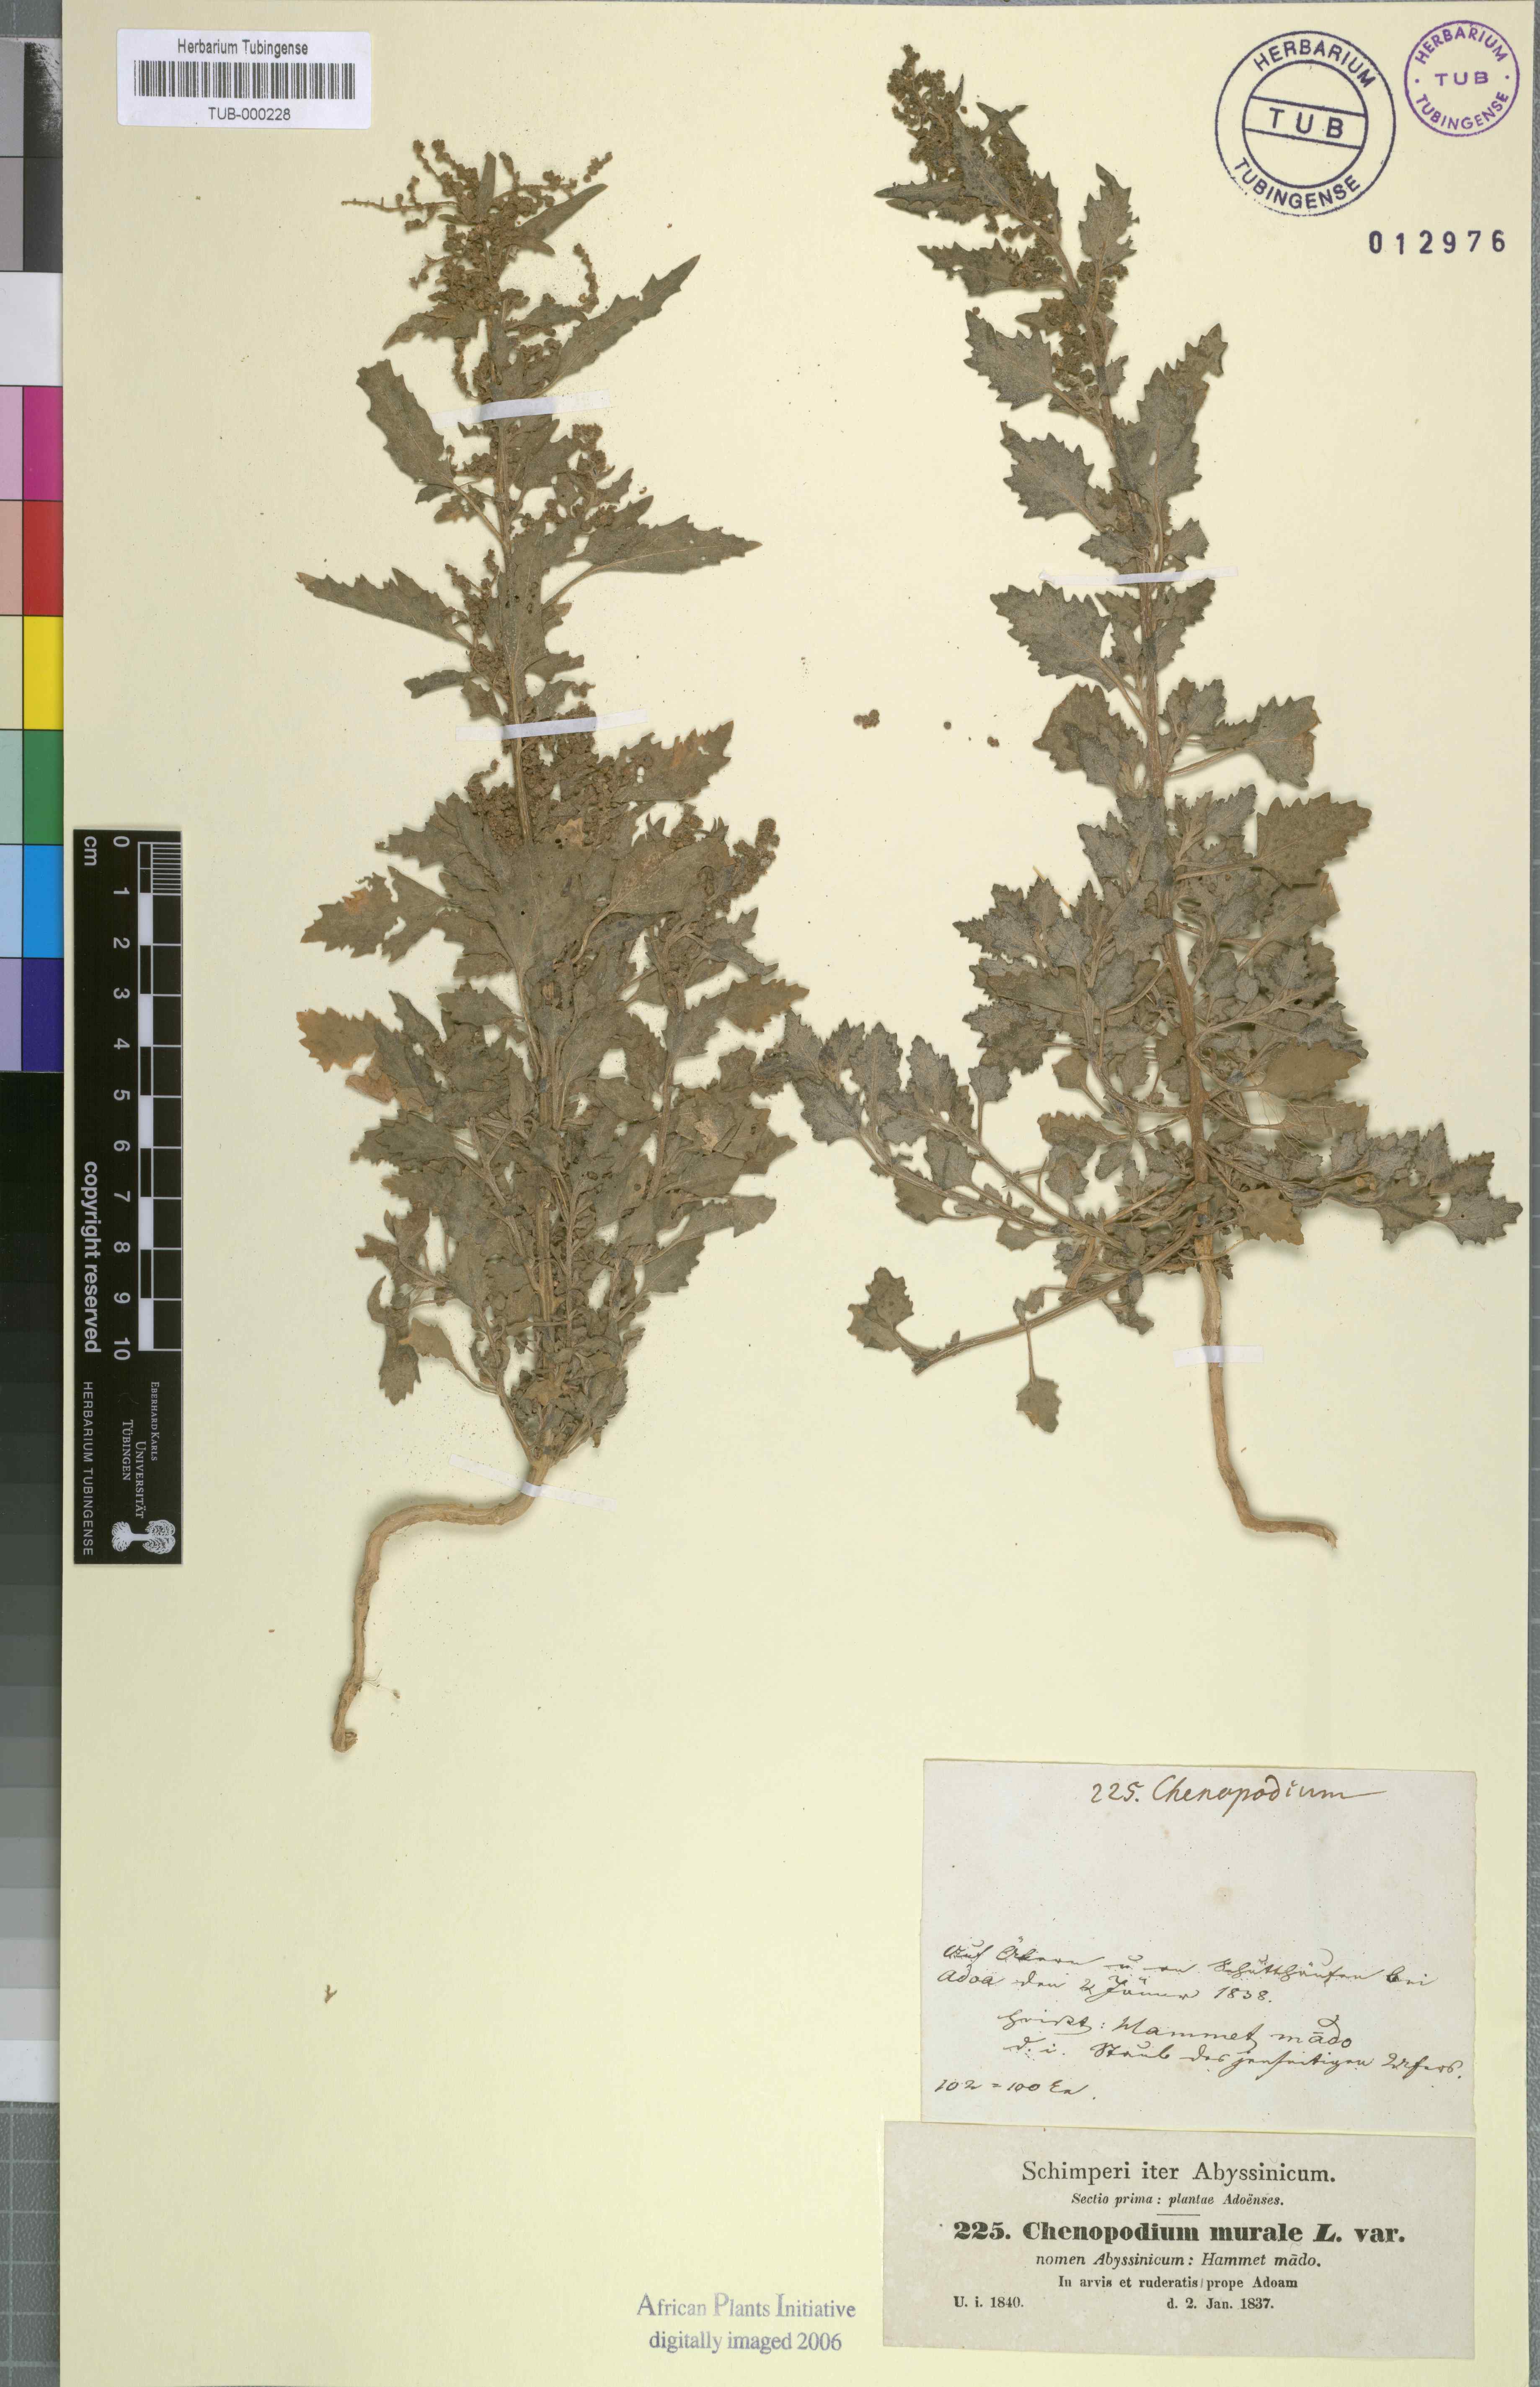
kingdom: Plantae
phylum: Tracheophyta
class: Magnoliopsida
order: Caryophyllales
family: Amaranthaceae
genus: Chenopodiastrum
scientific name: Chenopodiastrum murale
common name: Sowbane
